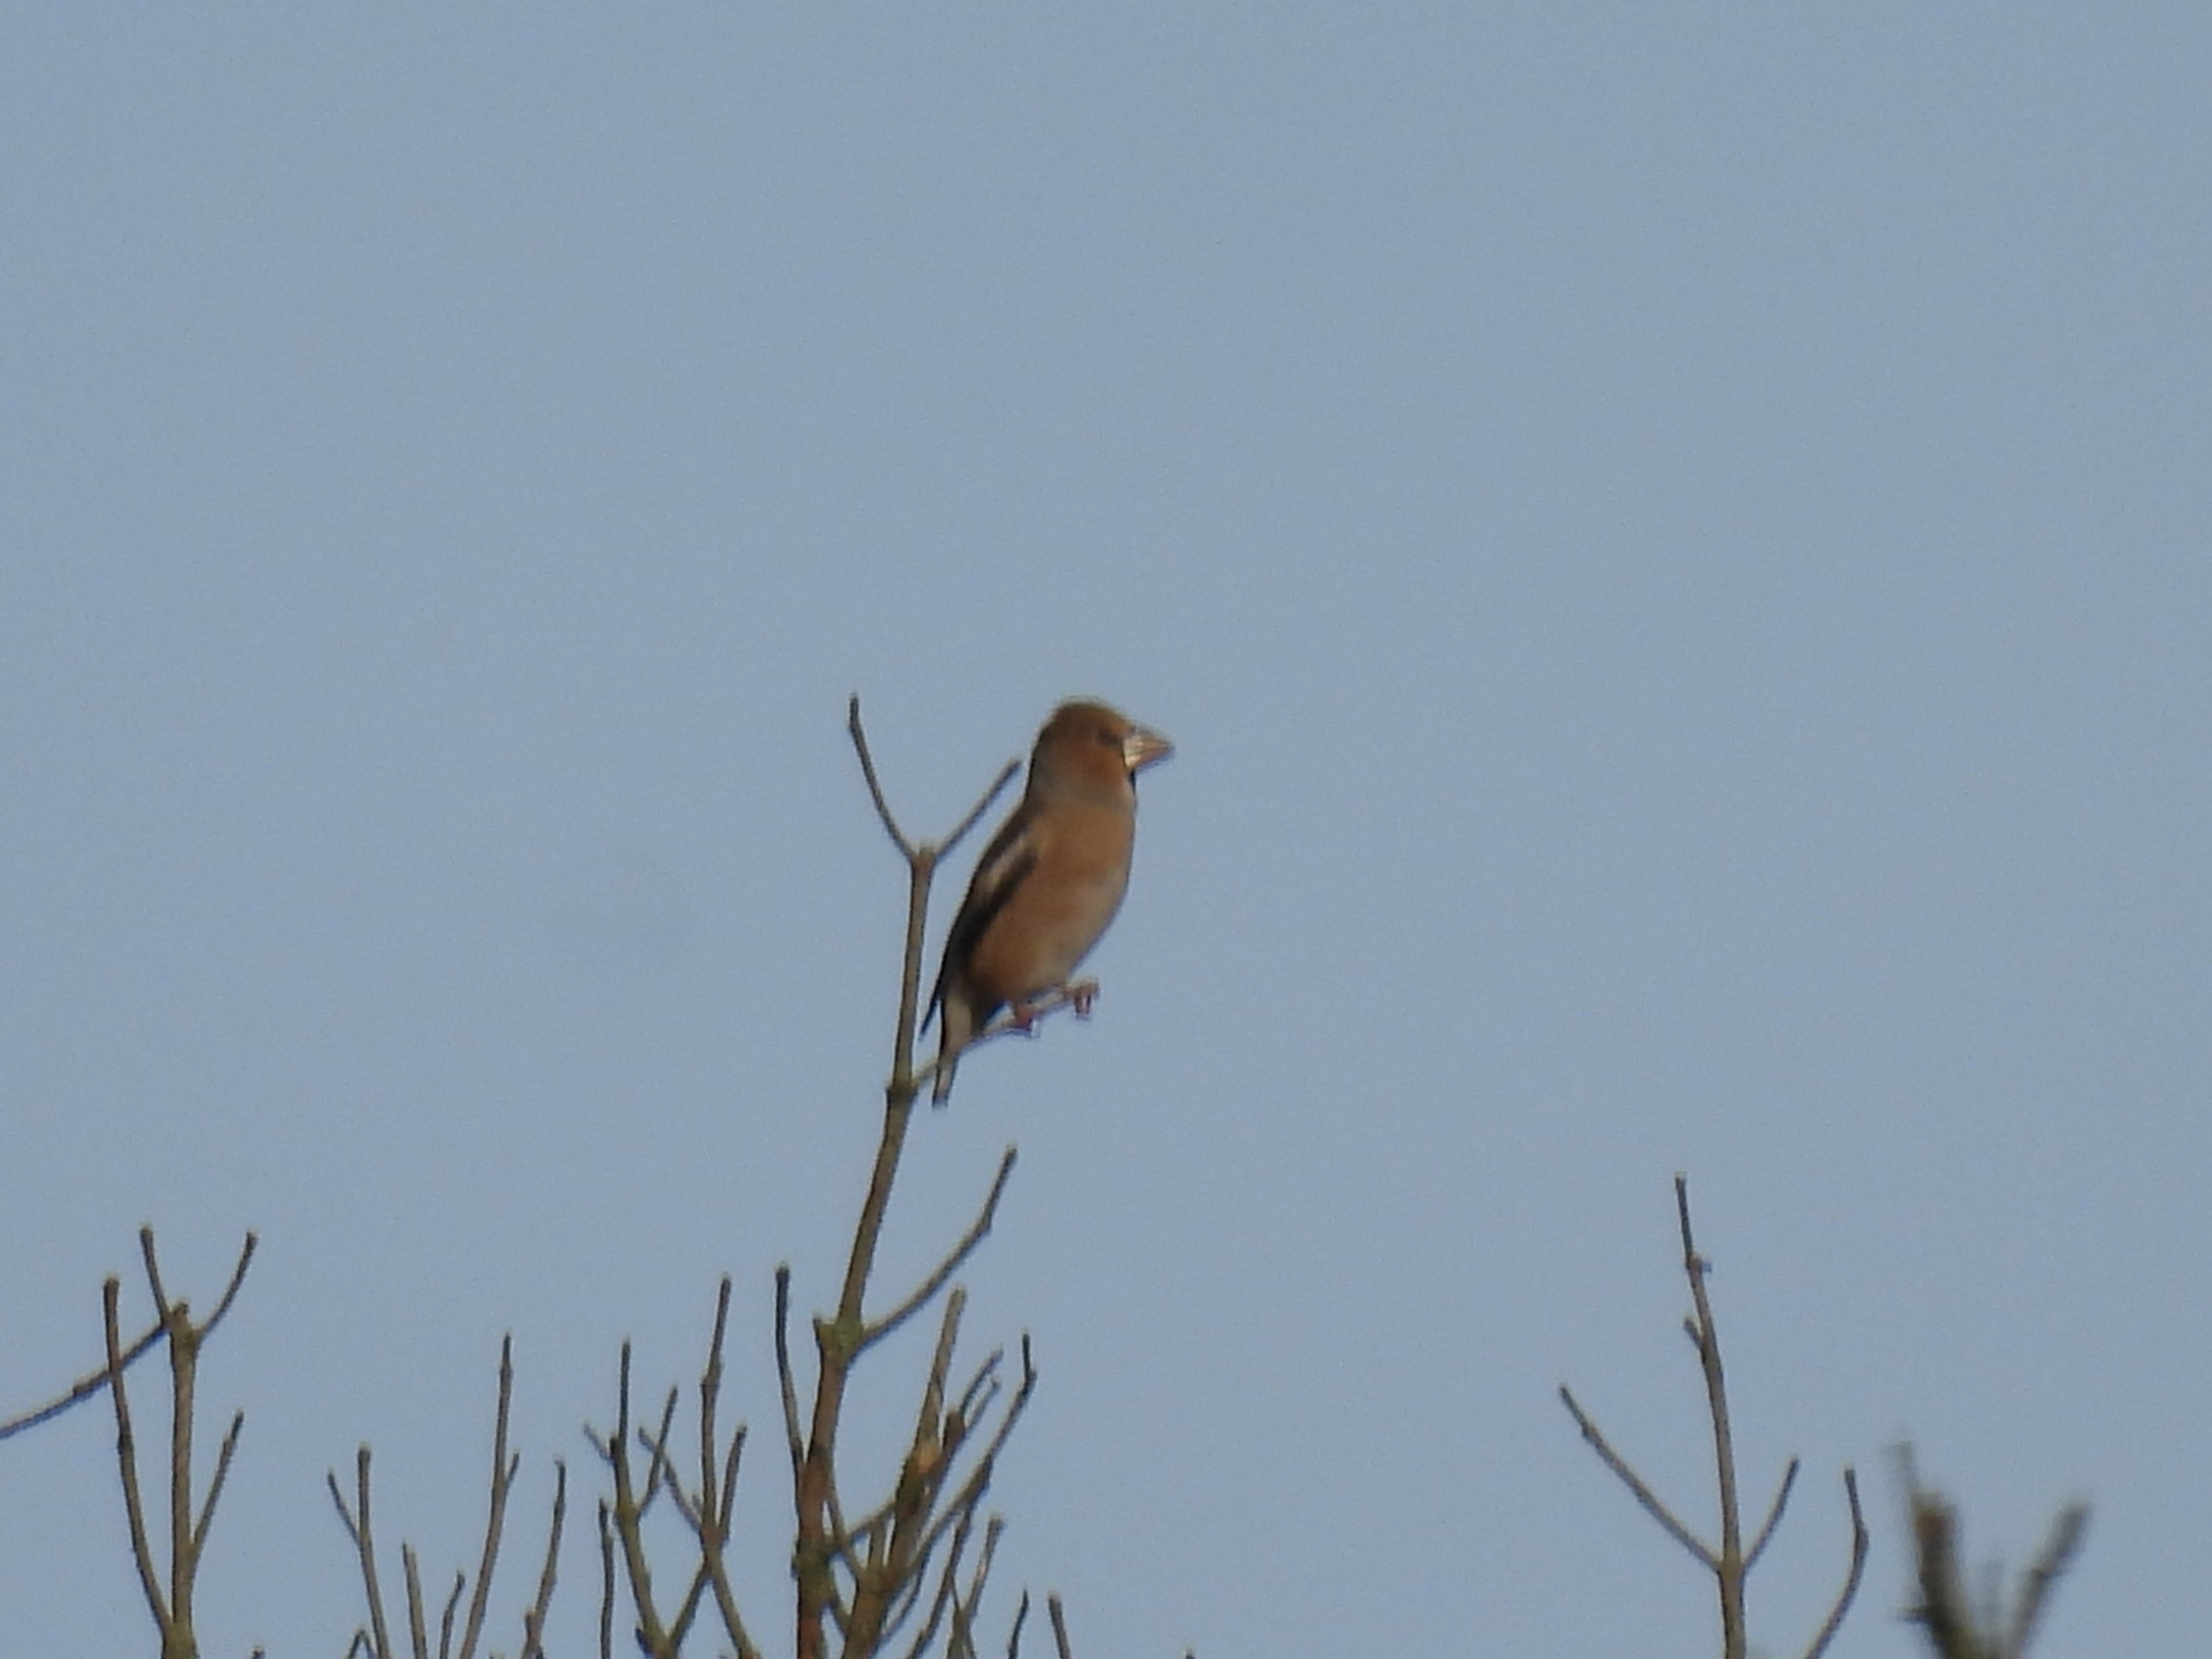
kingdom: Animalia
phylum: Chordata
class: Aves
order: Passeriformes
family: Fringillidae
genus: Coccothraustes
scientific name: Coccothraustes coccothraustes
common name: Kernebider
